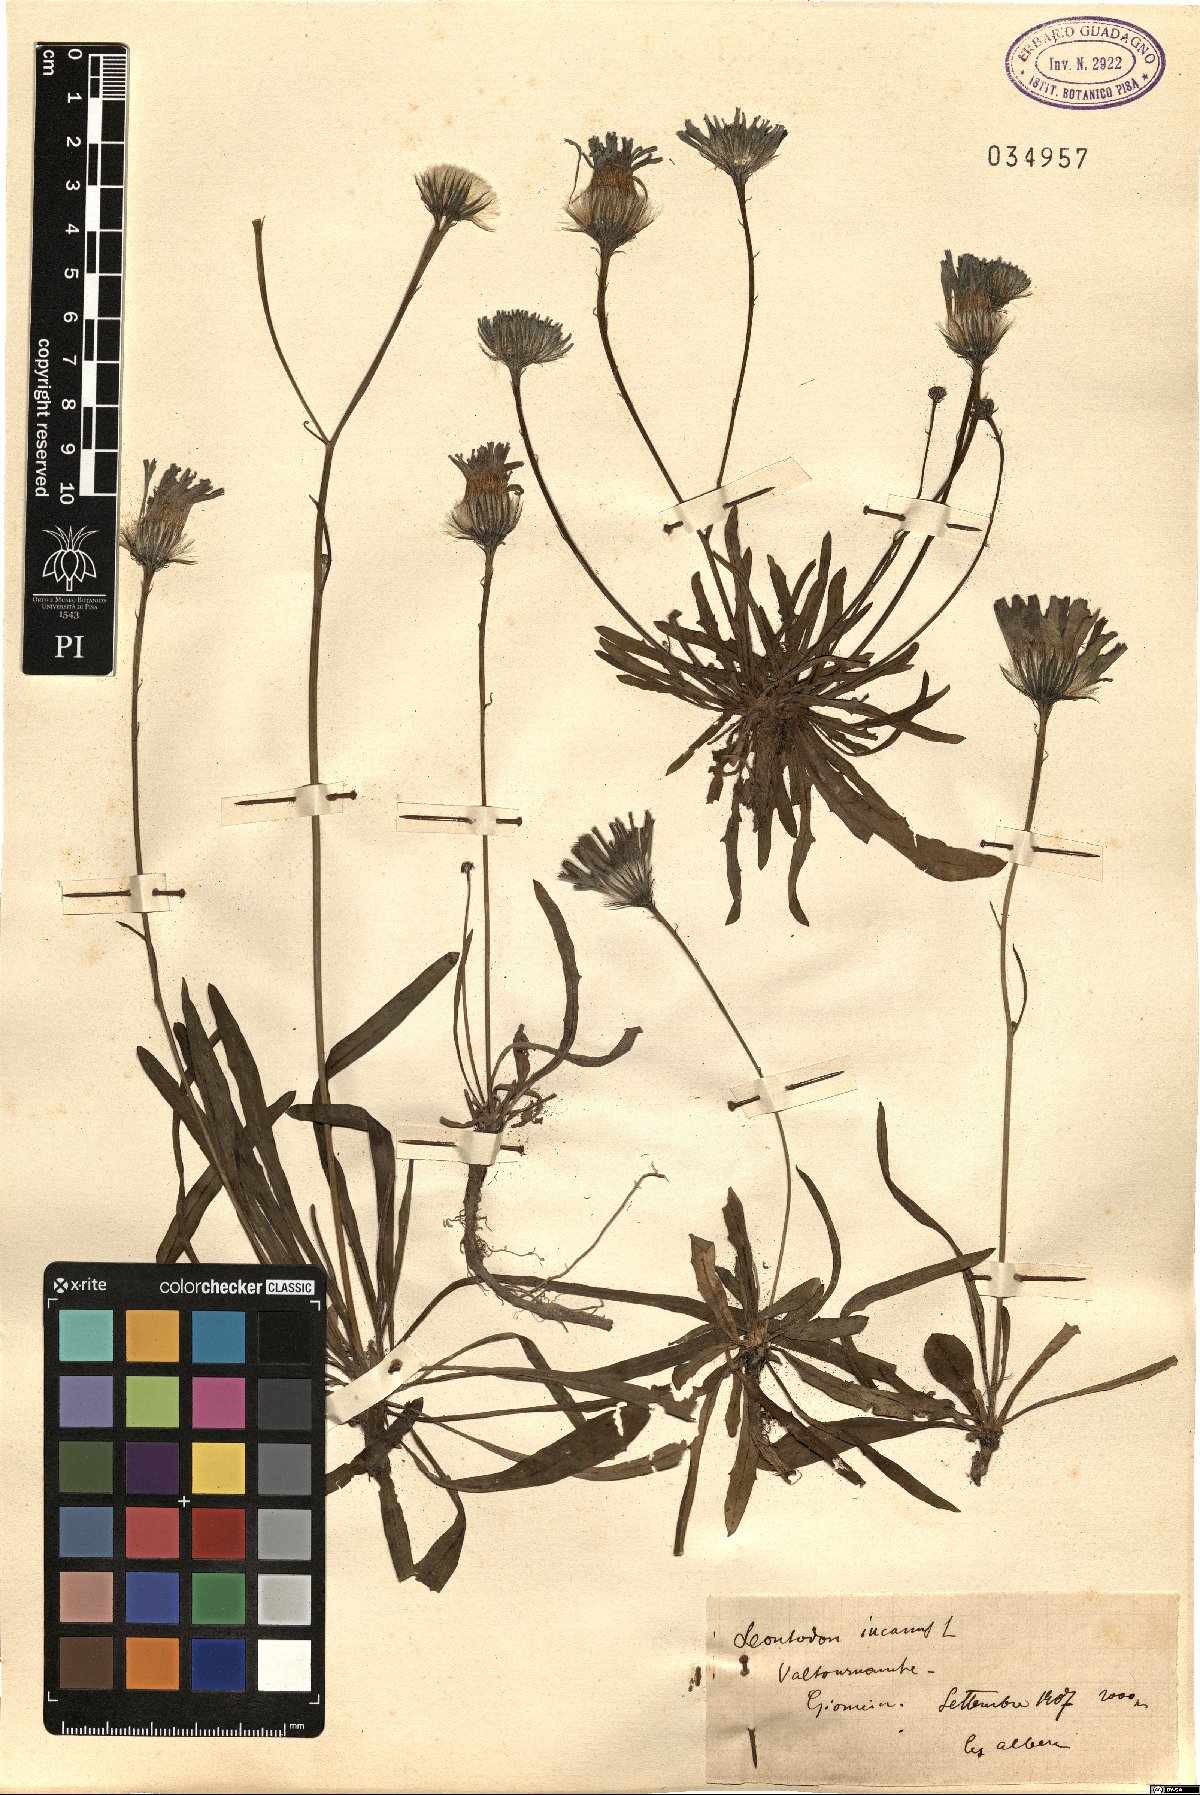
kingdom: Plantae
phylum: Tracheophyta
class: Magnoliopsida
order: Asterales
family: Asteraceae
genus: Leontodon
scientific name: Leontodon incanus
